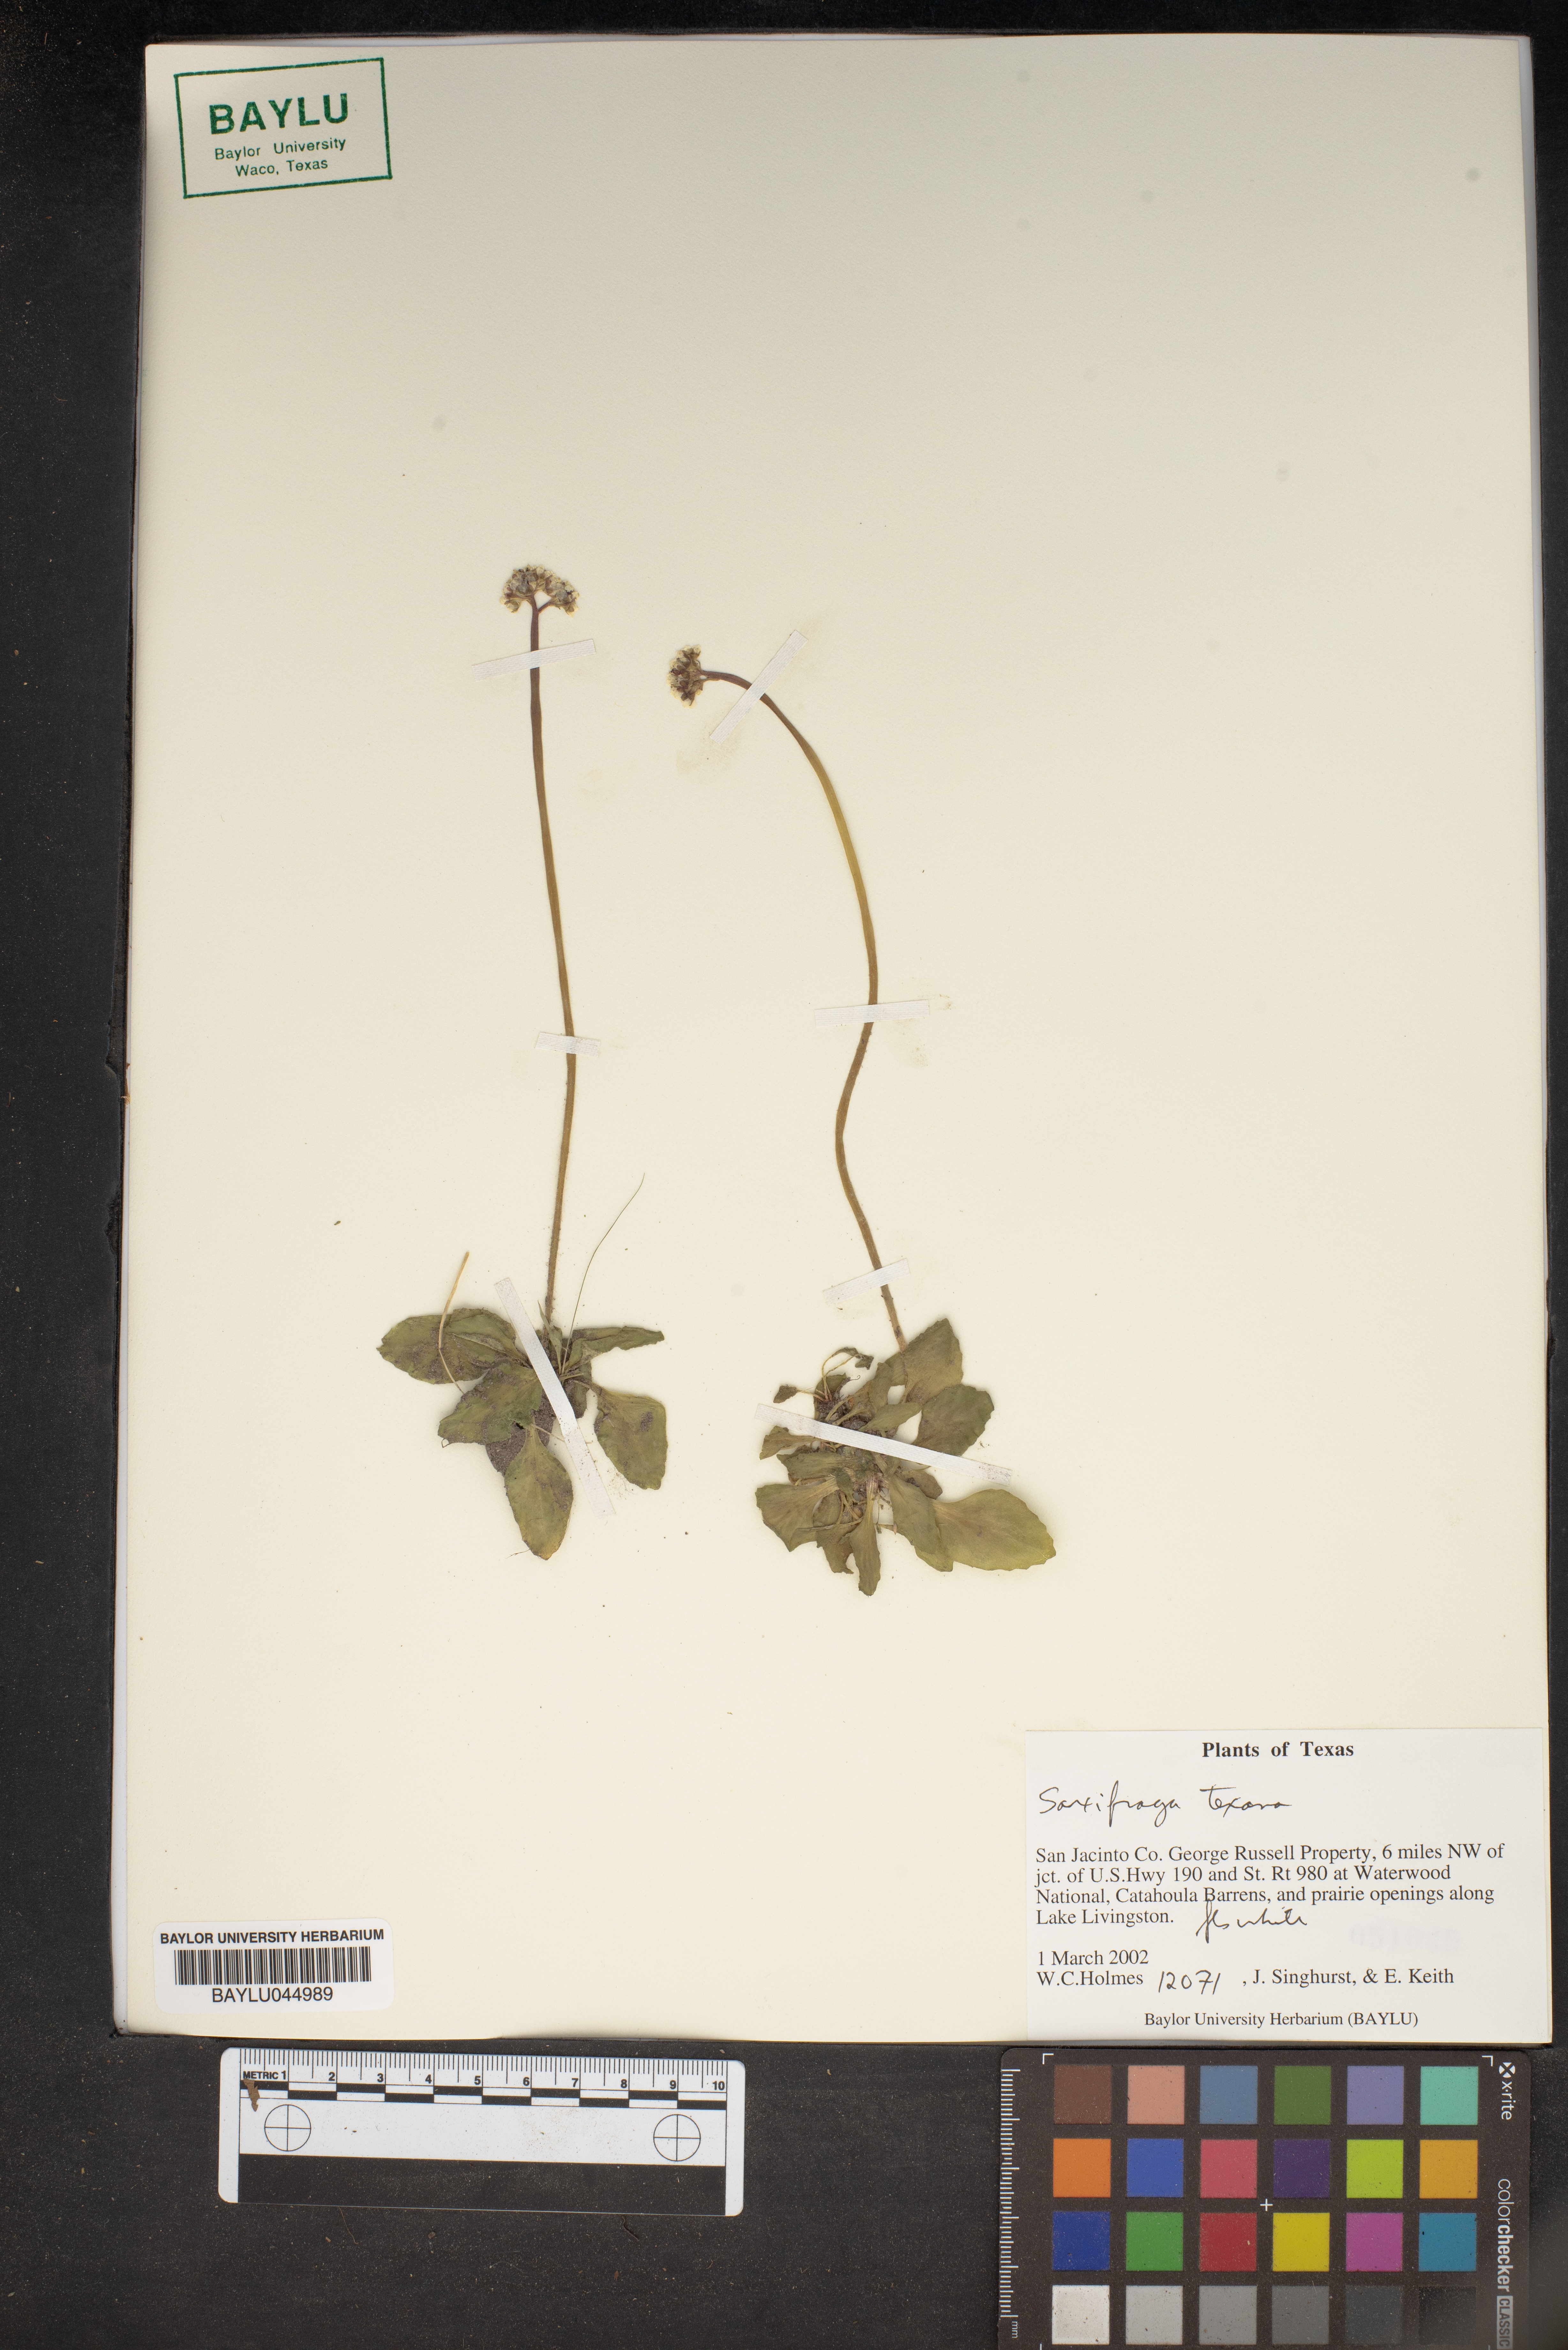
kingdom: Plantae
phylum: Tracheophyta
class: Magnoliopsida
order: Saxifragales
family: Saxifragaceae
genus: Micranthes
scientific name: Micranthes texana
